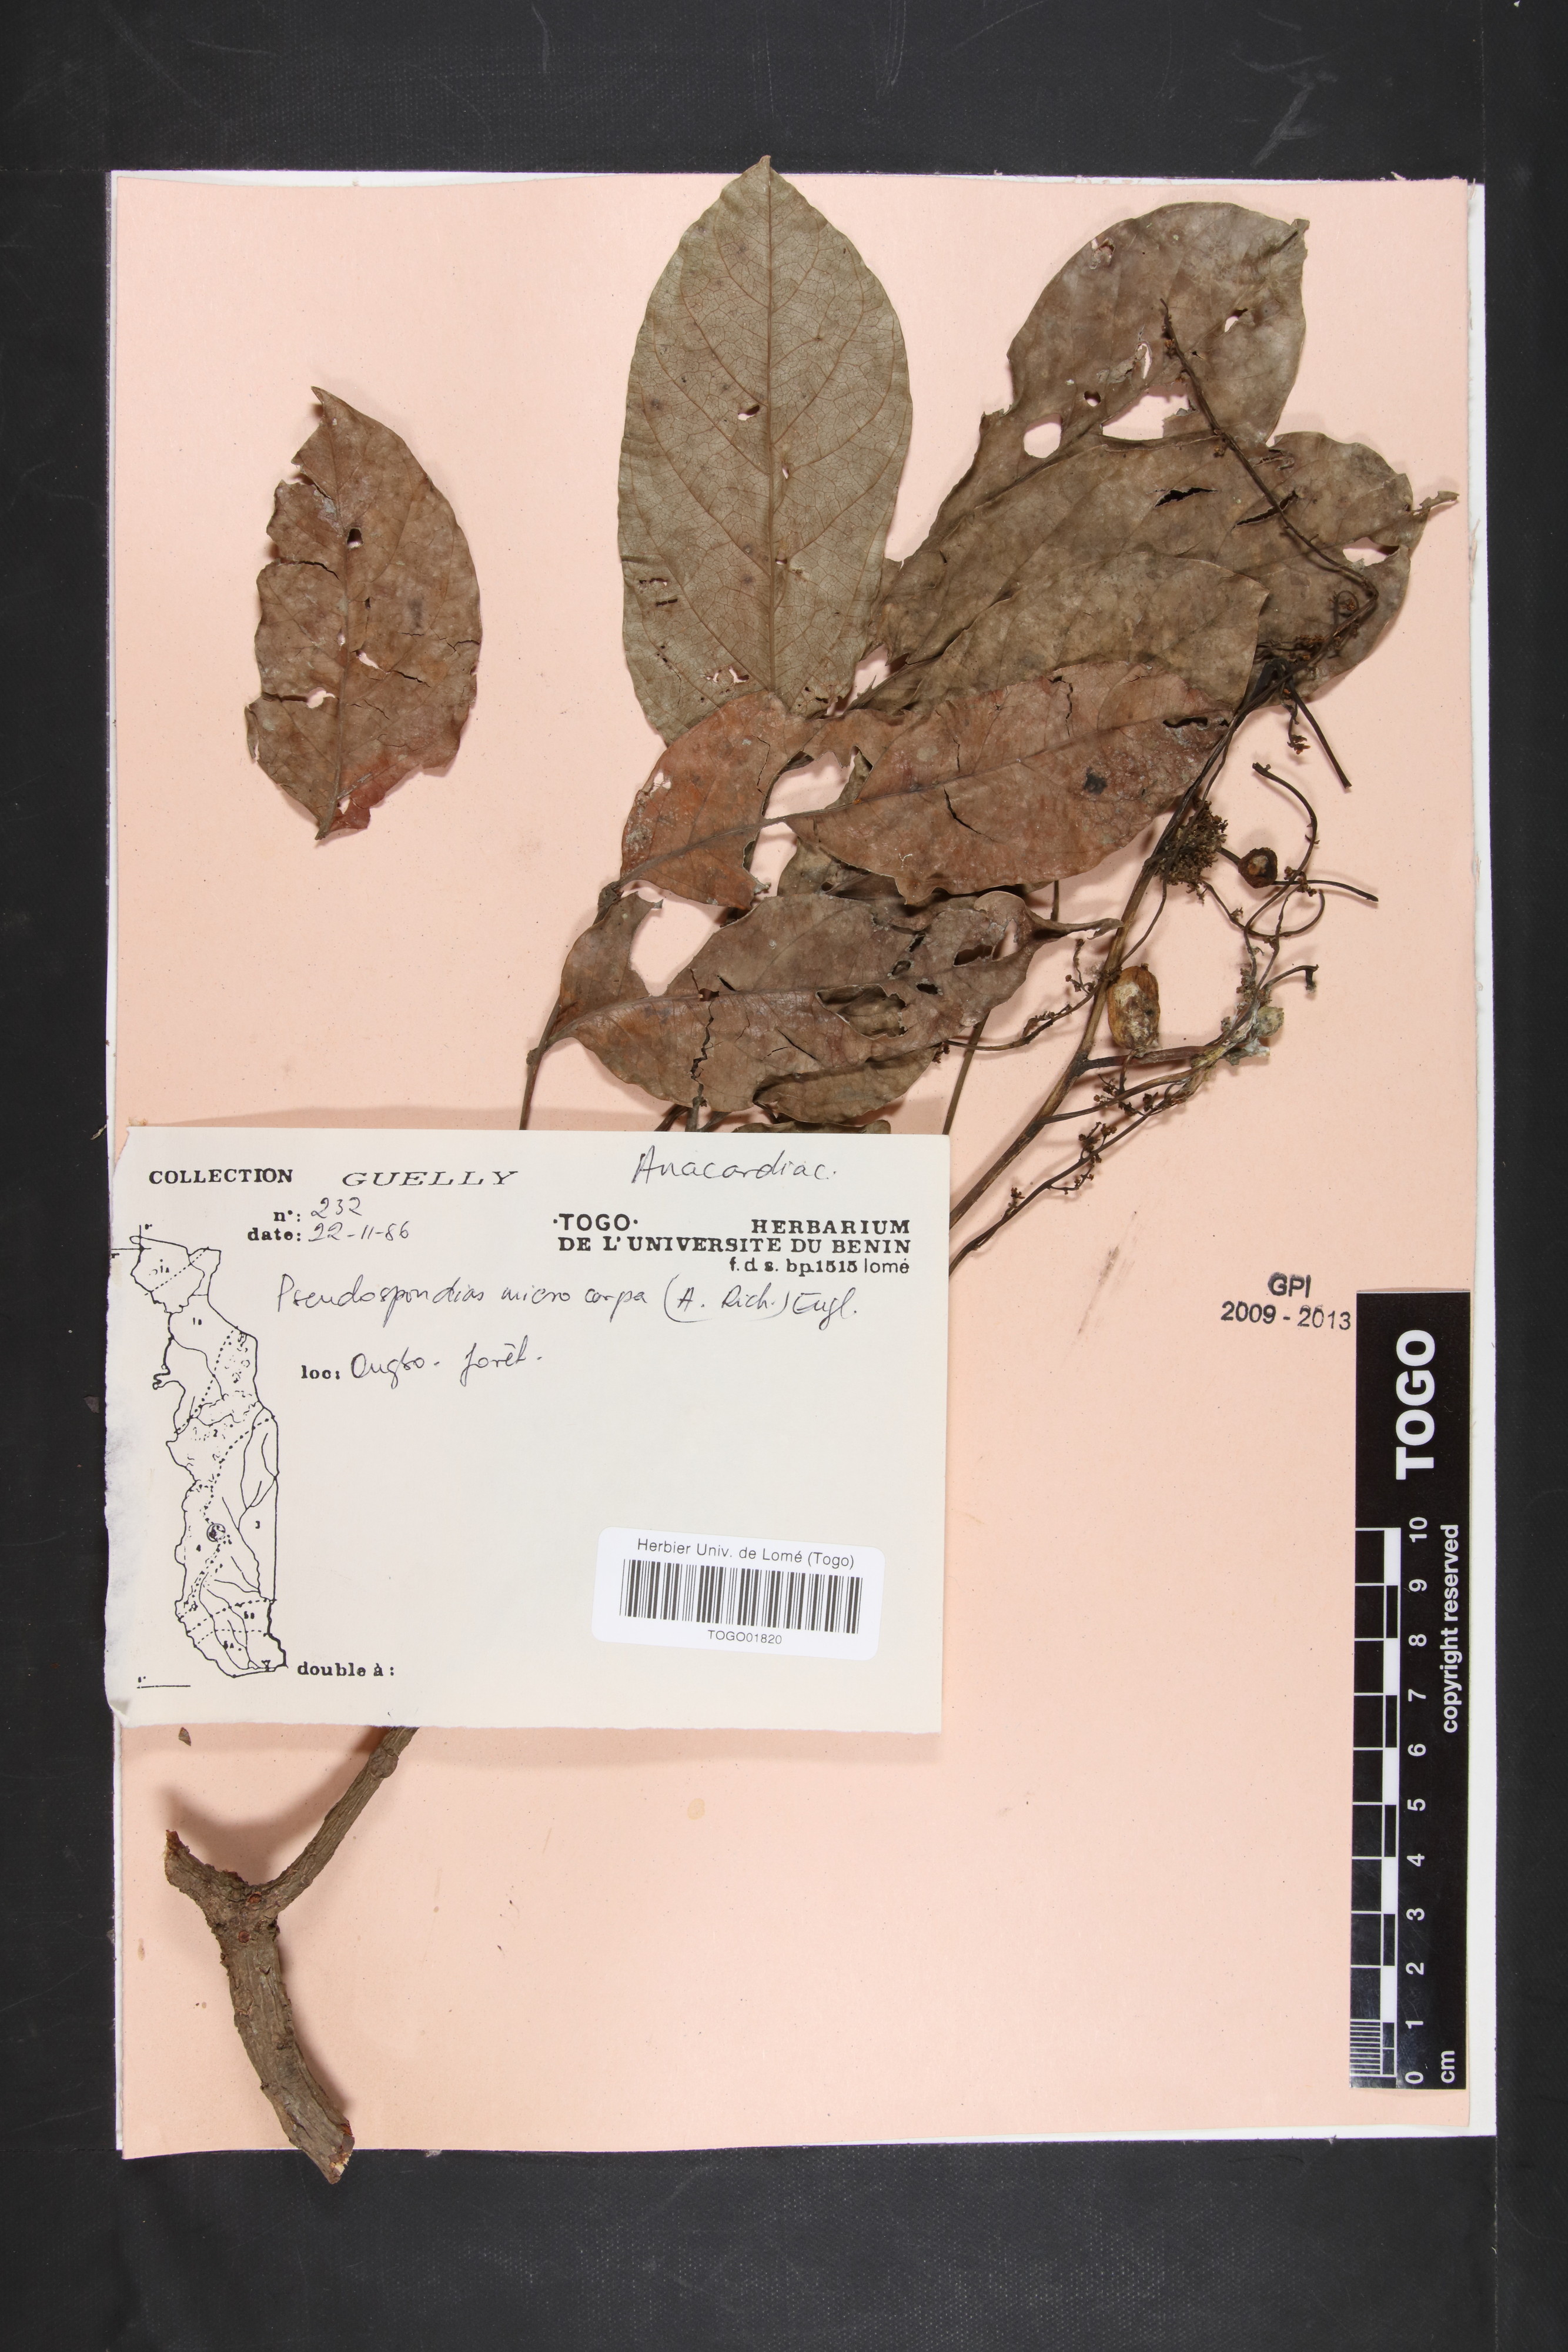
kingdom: Plantae
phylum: Tracheophyta
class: Magnoliopsida
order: Sapindales
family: Anacardiaceae
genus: Pseudospondias
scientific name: Pseudospondias microcarpa
